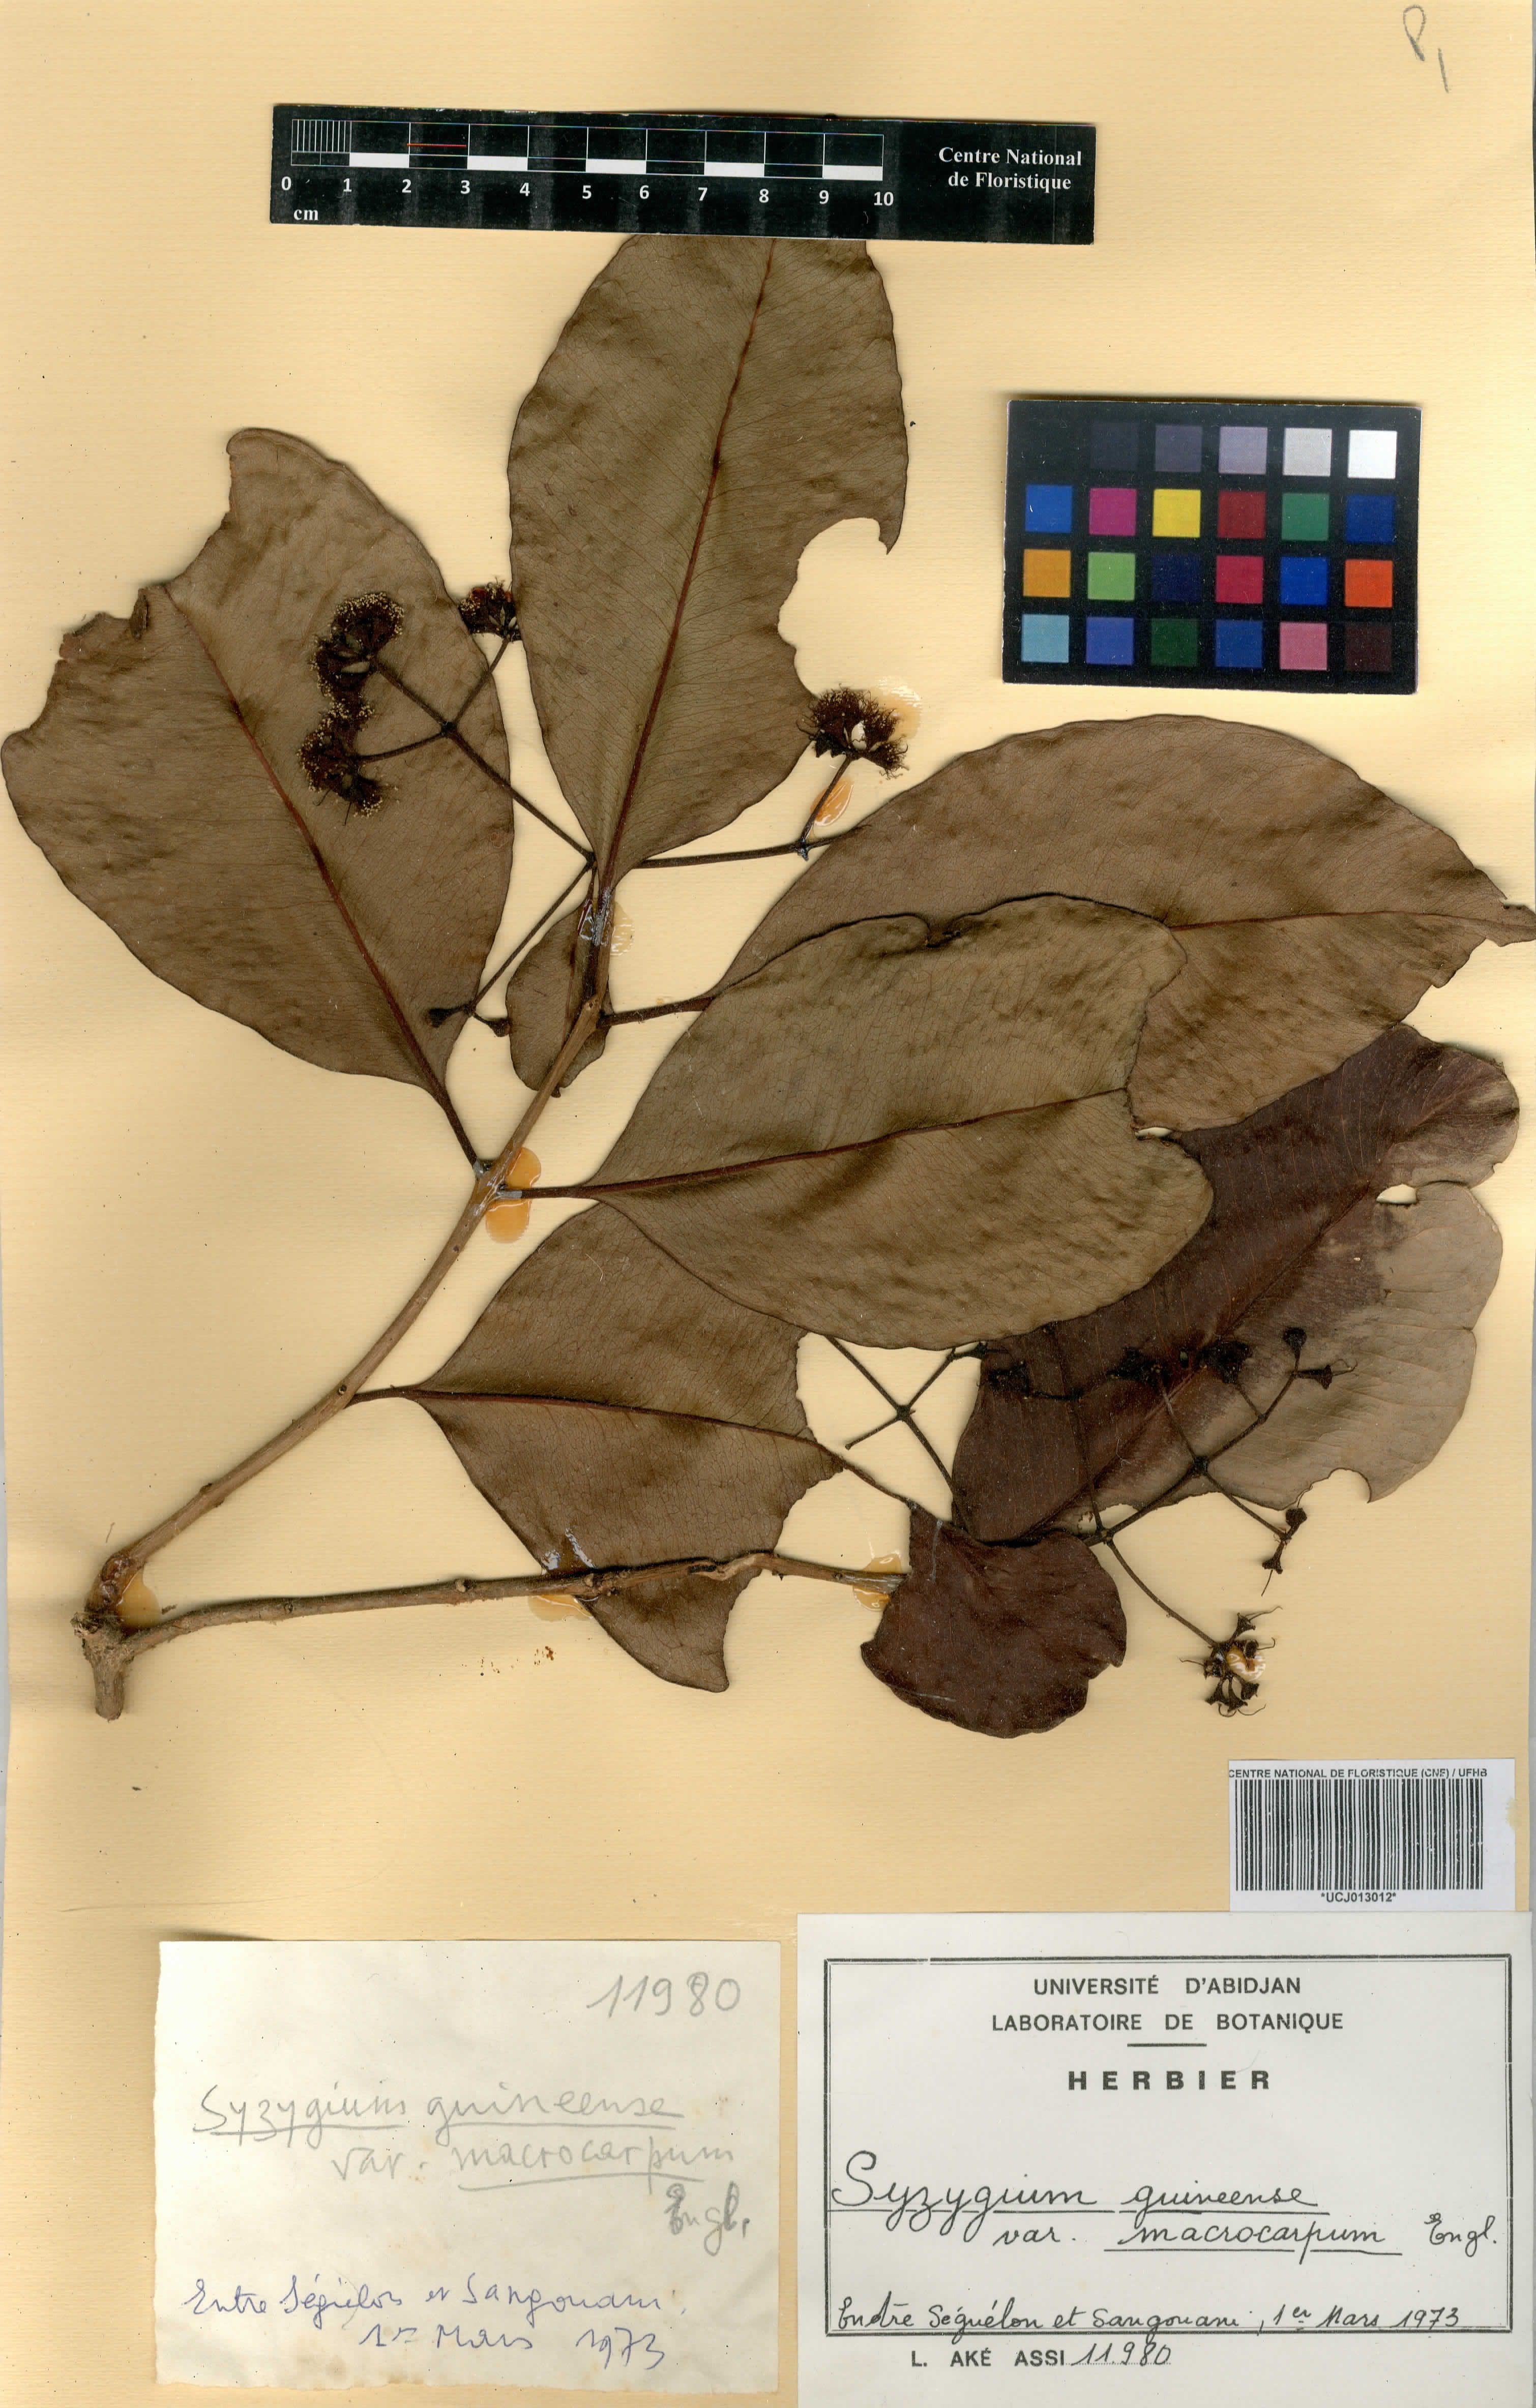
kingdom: Plantae
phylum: Tracheophyta
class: Magnoliopsida
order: Myrtales
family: Myrtaceae
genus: Syzygium
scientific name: Syzygium guineense
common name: Water-pear
